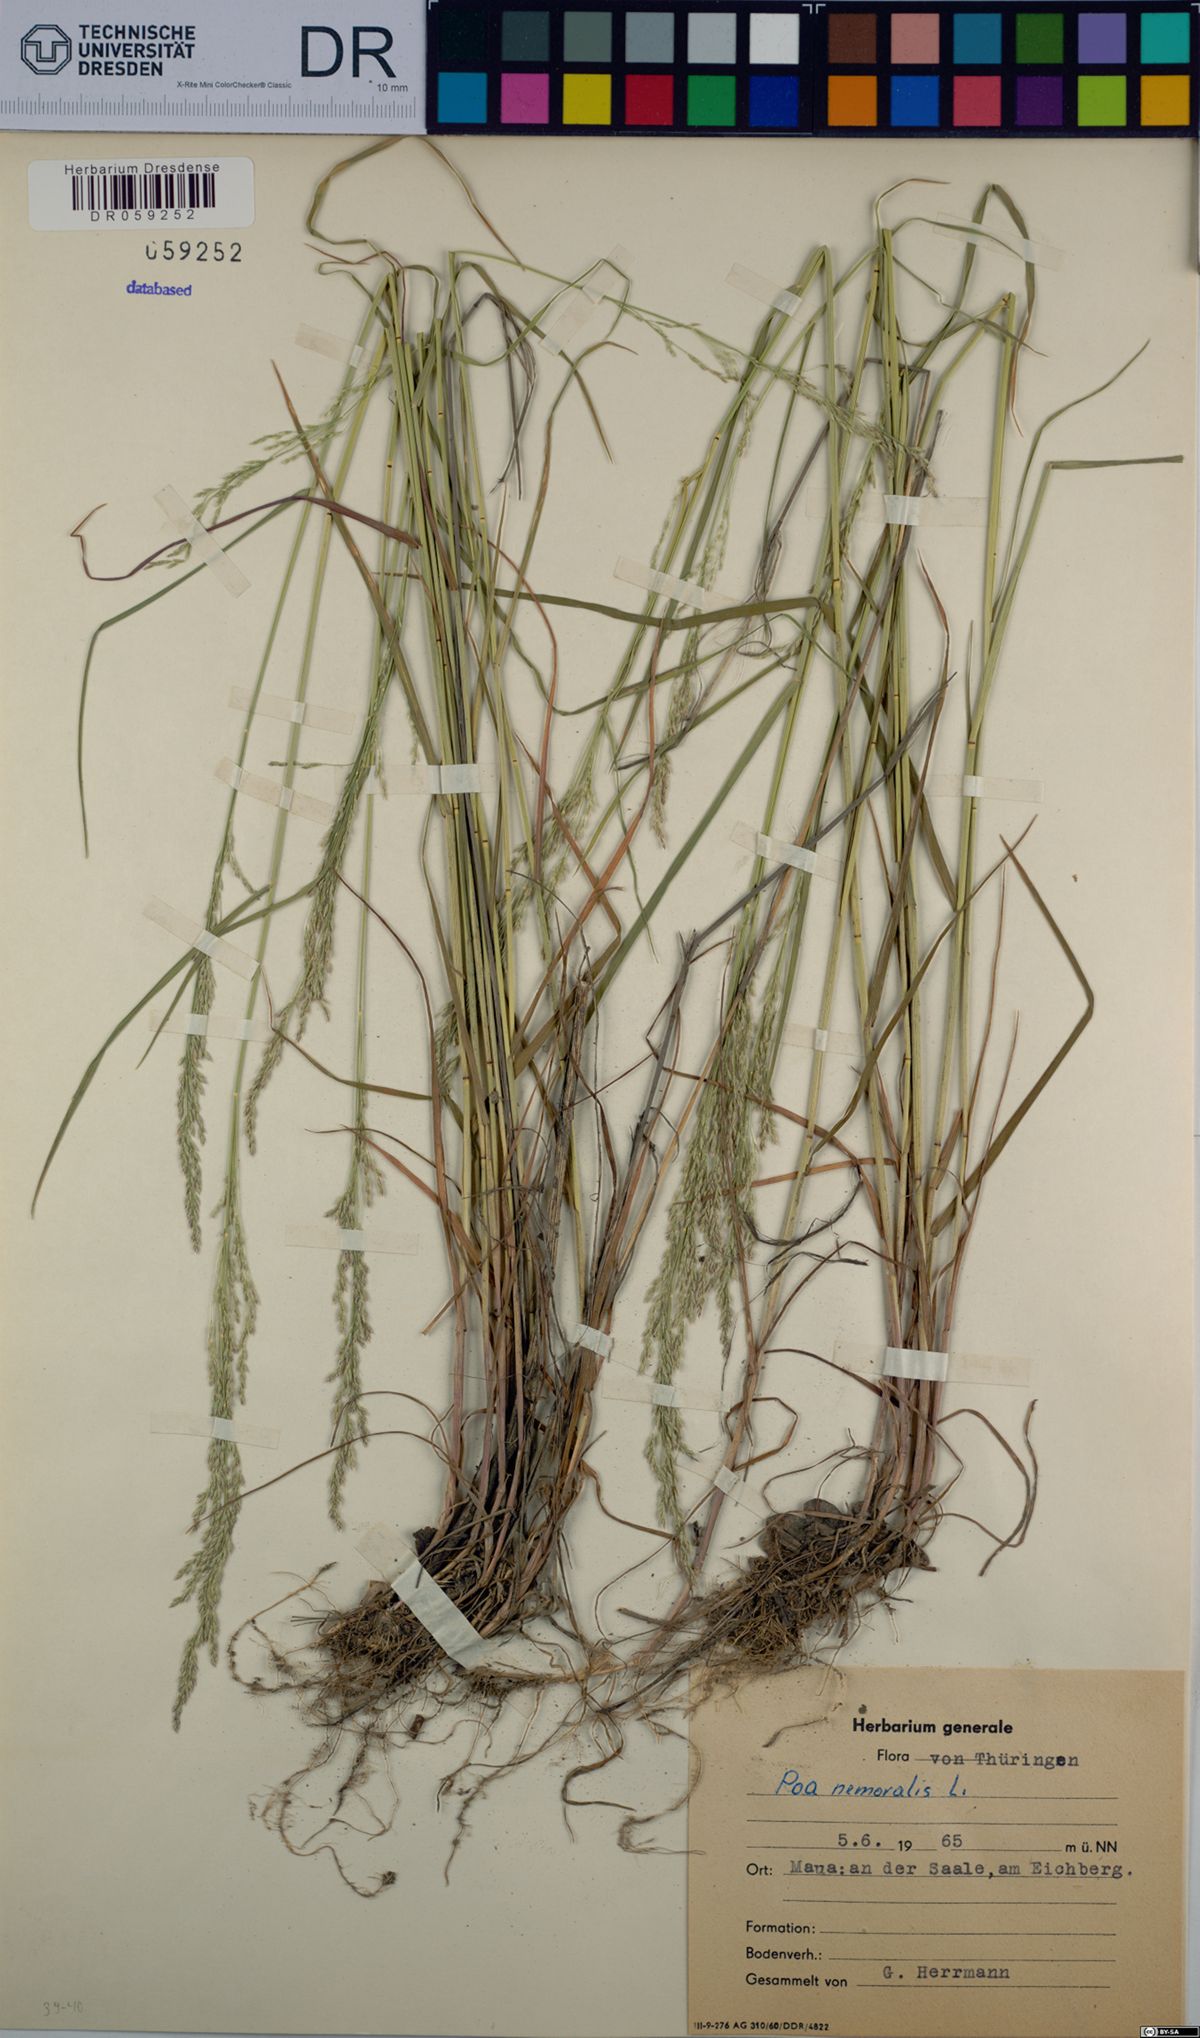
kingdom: Plantae
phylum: Tracheophyta
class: Liliopsida
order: Poales
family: Poaceae
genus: Poa
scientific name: Poa nemoralis
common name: Wood bluegrass
